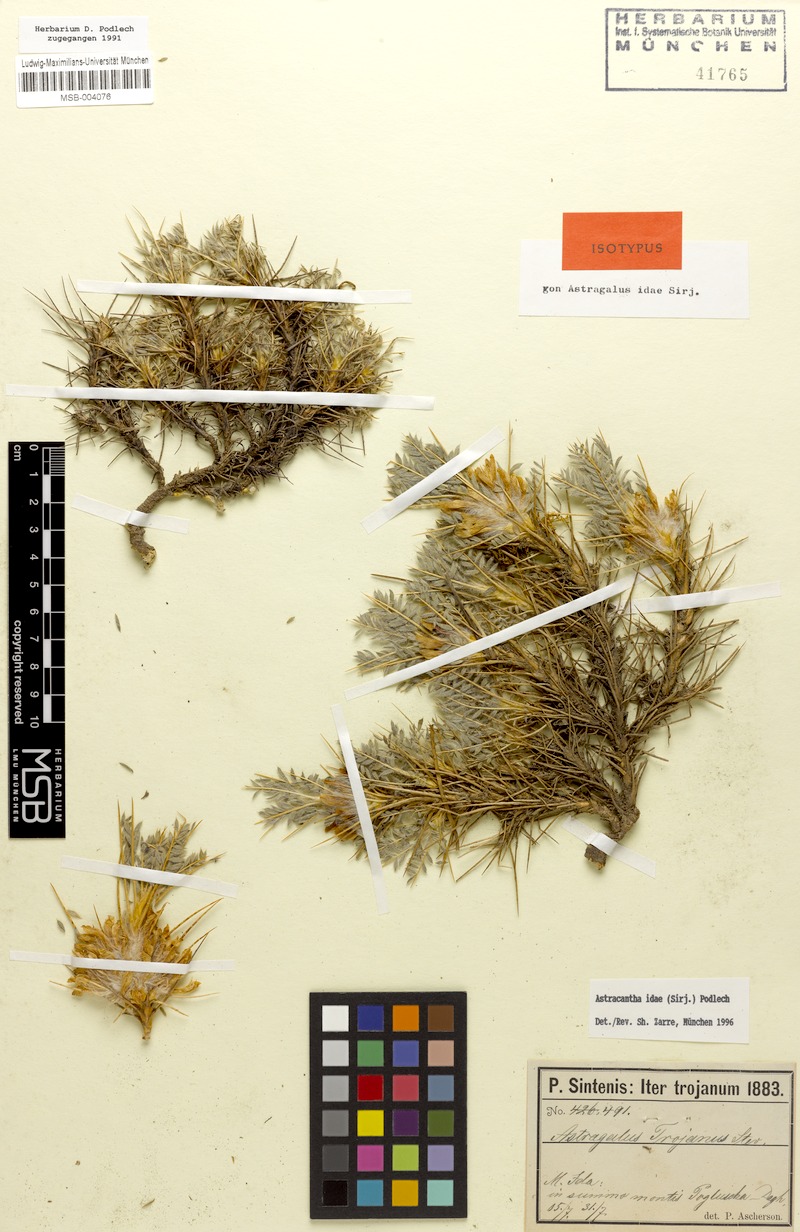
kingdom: Plantae
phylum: Tracheophyta
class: Magnoliopsida
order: Fabales
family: Fabaceae
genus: Astragalus
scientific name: Astragalus thracicus
